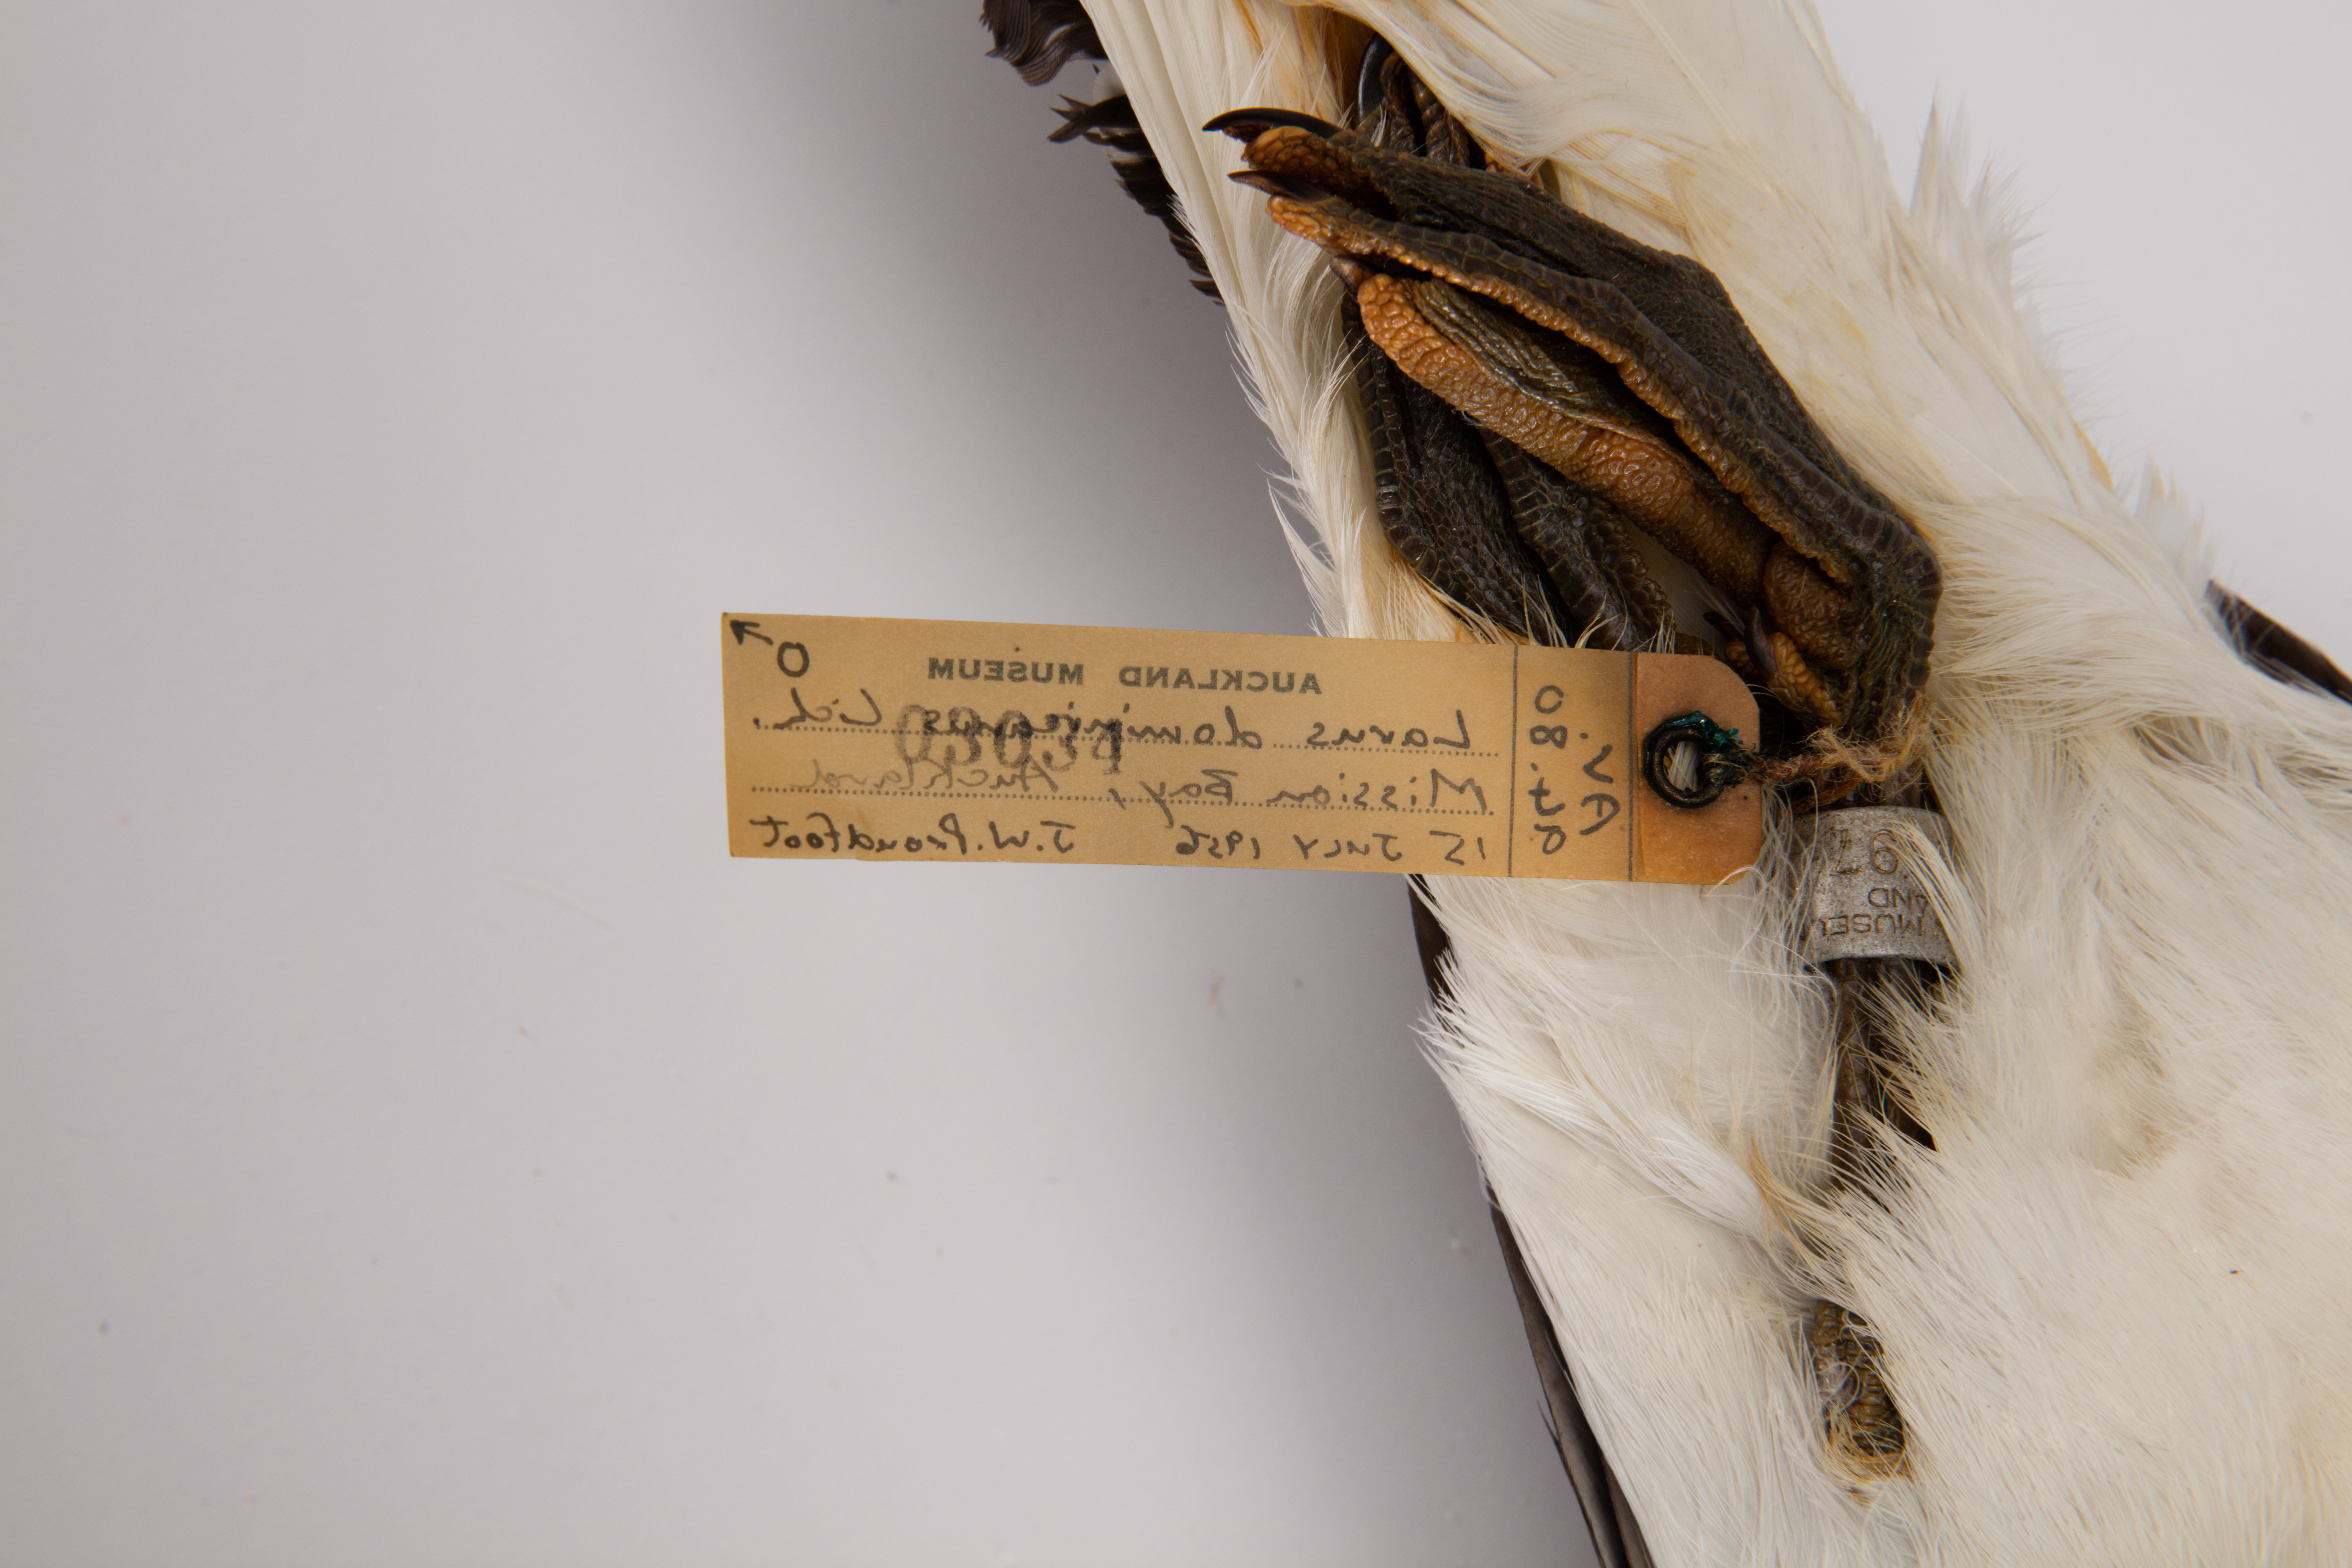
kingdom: Animalia
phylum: Chordata
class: Aves
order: Charadriiformes
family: Laridae
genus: Larus
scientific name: Larus dominicanus
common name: Kelp gull
